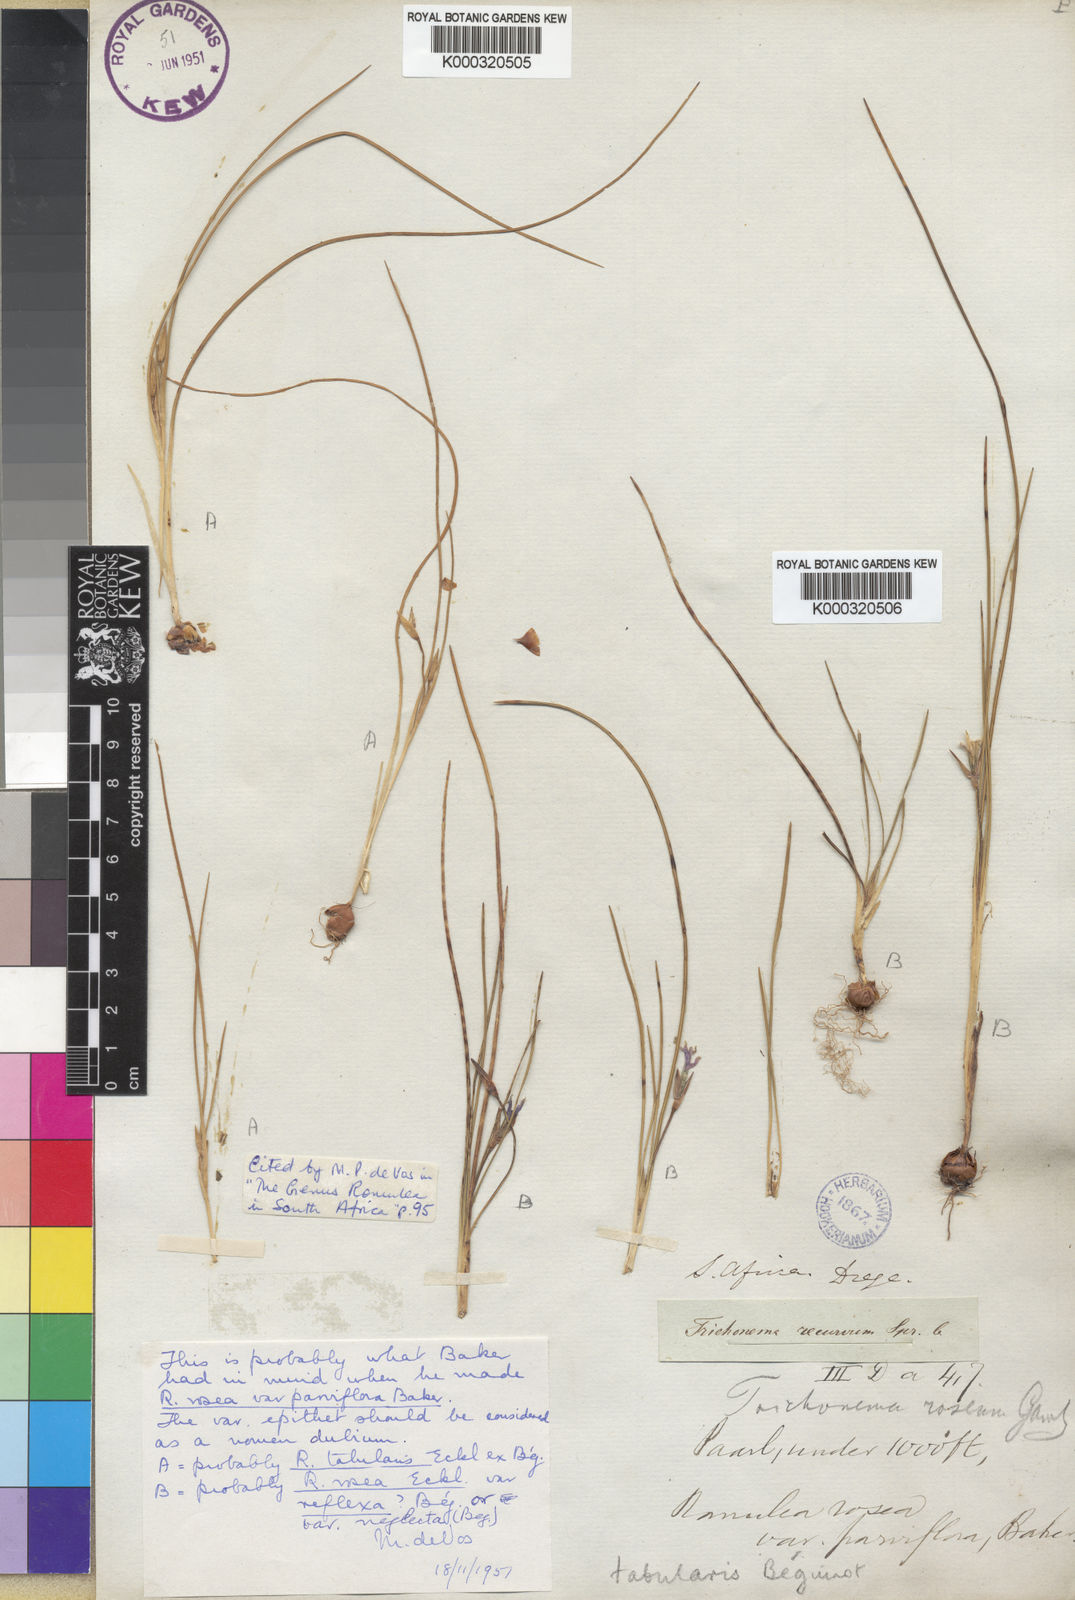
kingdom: Plantae
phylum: Tracheophyta
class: Liliopsida
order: Asparagales
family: Iridaceae
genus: Romulea
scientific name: Romulea
